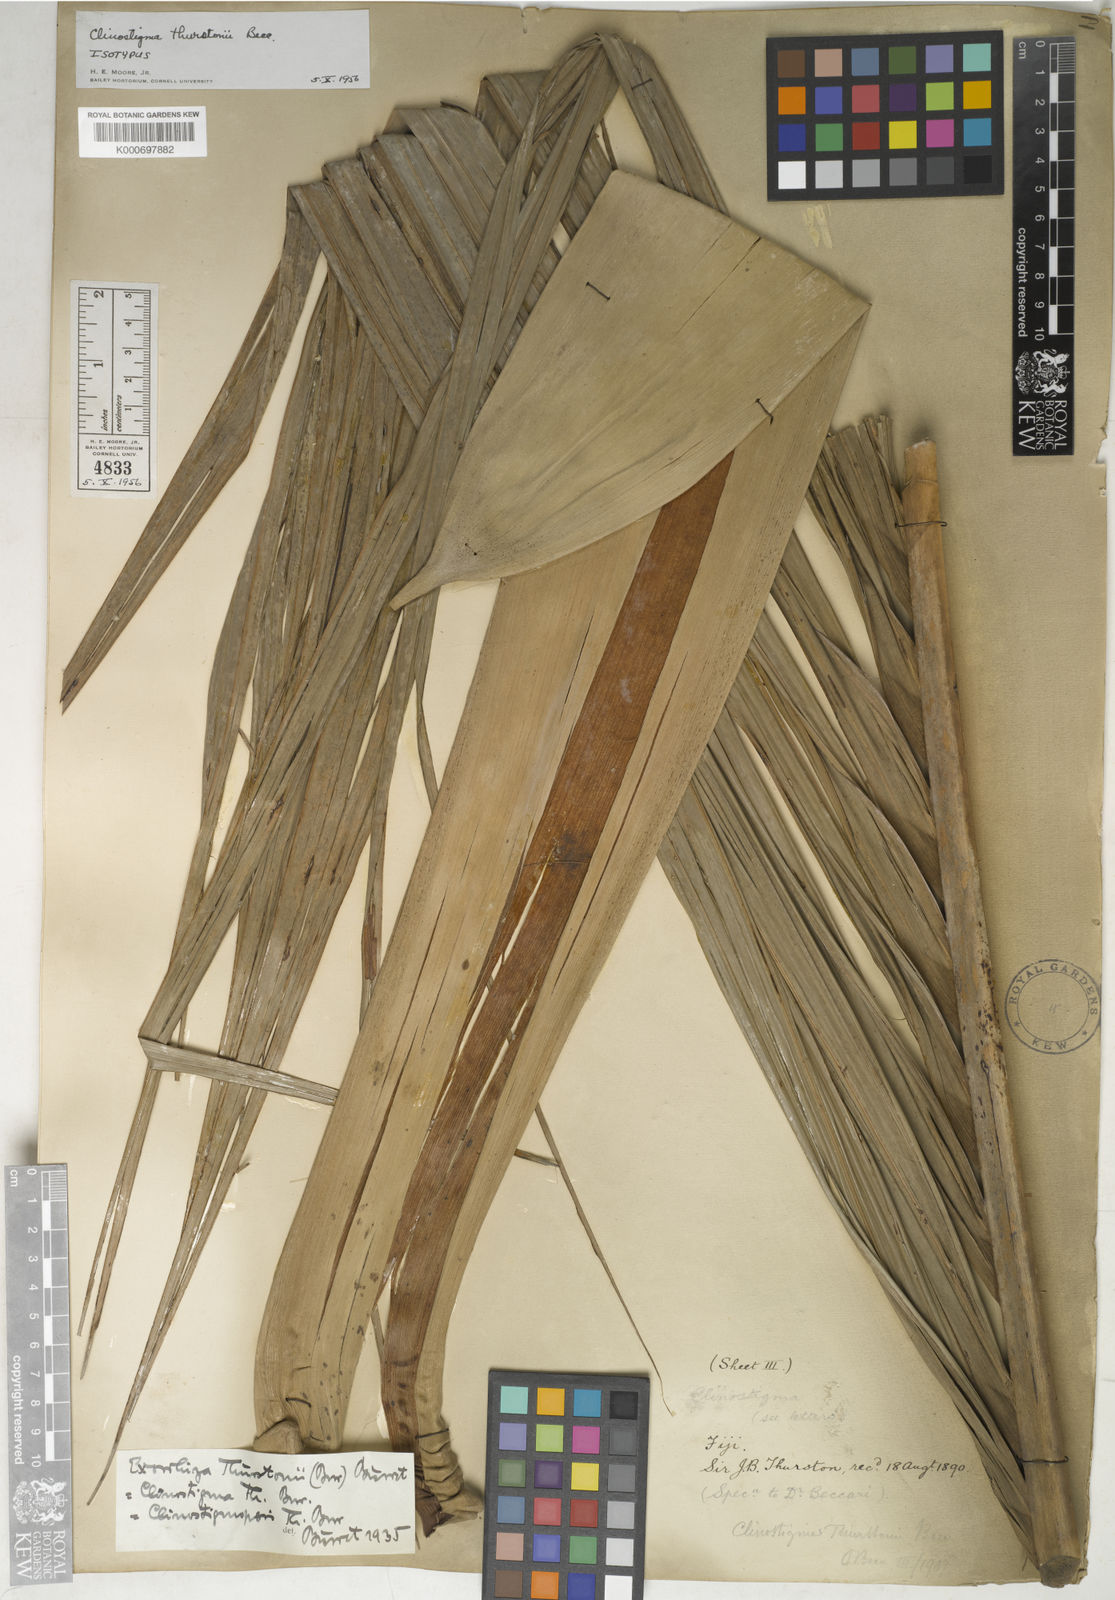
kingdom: Plantae
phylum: Tracheophyta
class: Liliopsida
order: Arecales
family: Arecaceae
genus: Clinostigma
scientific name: Clinostigma exorrhizum
